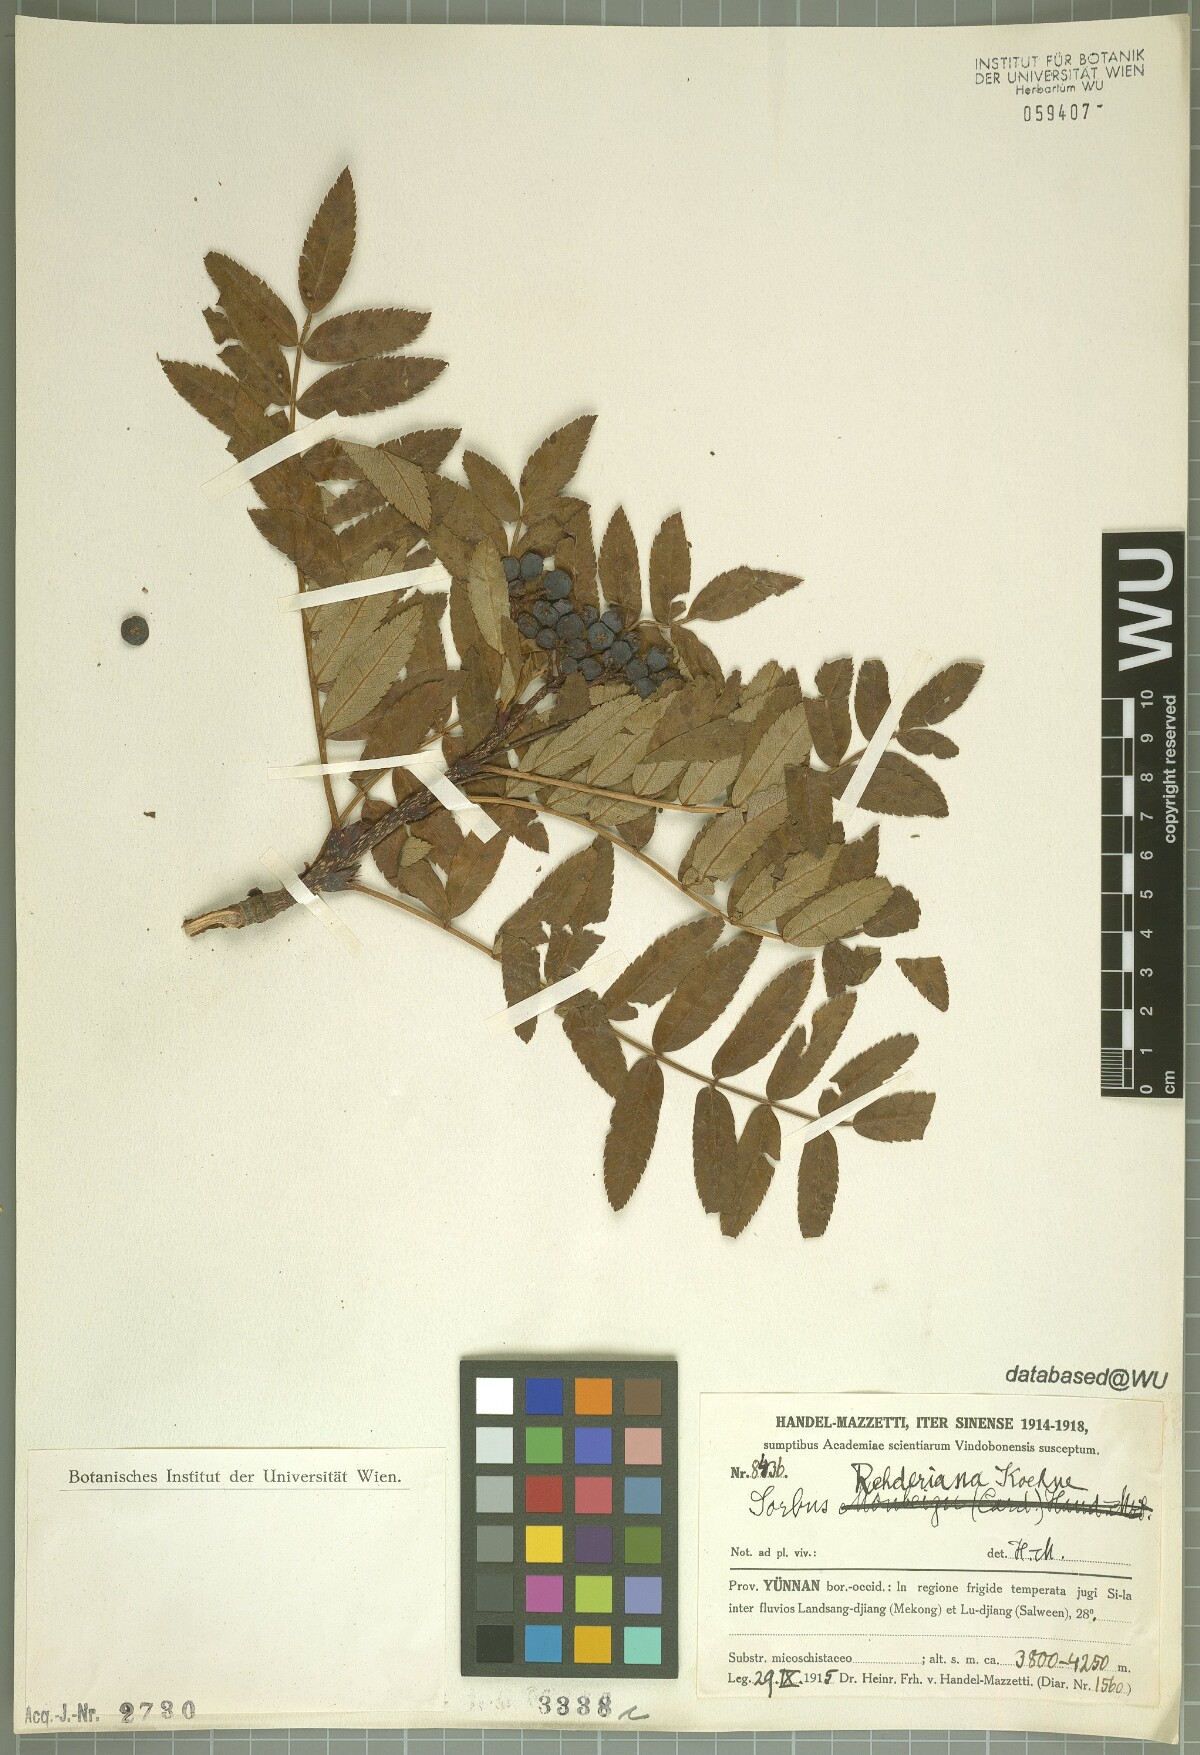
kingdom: Plantae
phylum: Tracheophyta
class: Magnoliopsida
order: Rosales
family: Rosaceae
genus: Sorbus
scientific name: Sorbus rehderiana
